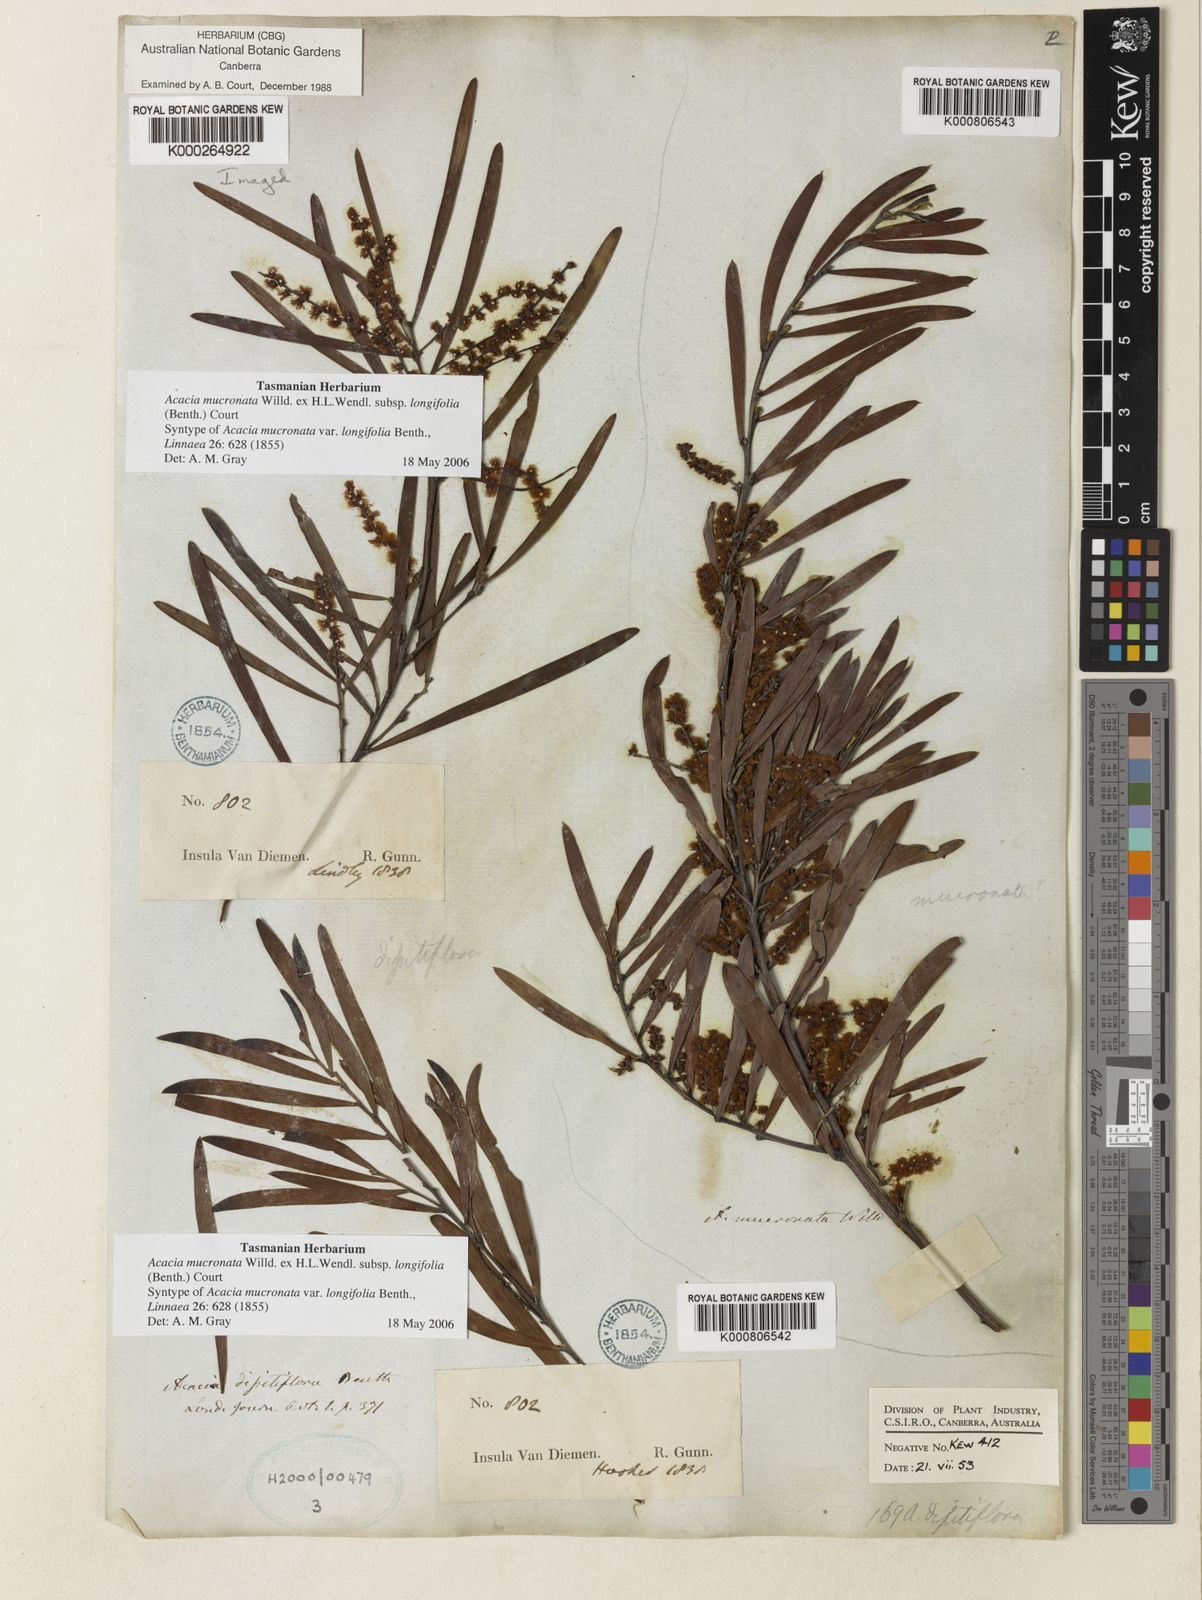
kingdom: Plantae
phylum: Tracheophyta
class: Magnoliopsida
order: Fabales
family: Fabaceae
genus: Acacia
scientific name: Acacia mucronata
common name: Variable sallow wattle
